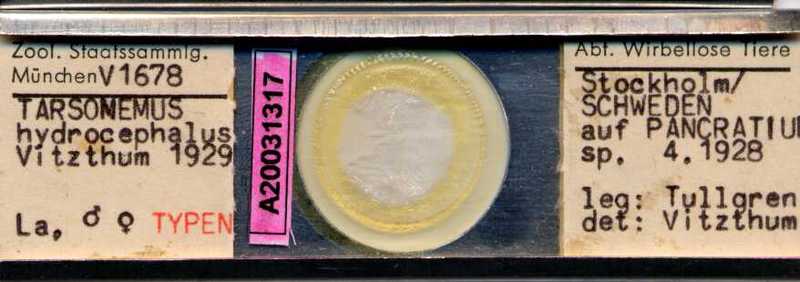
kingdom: Animalia
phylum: Arthropoda
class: Arachnida
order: Trombidiformes
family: Tarsonemidae
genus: Steneotarsonemus
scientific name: Steneotarsonemus laticeps
